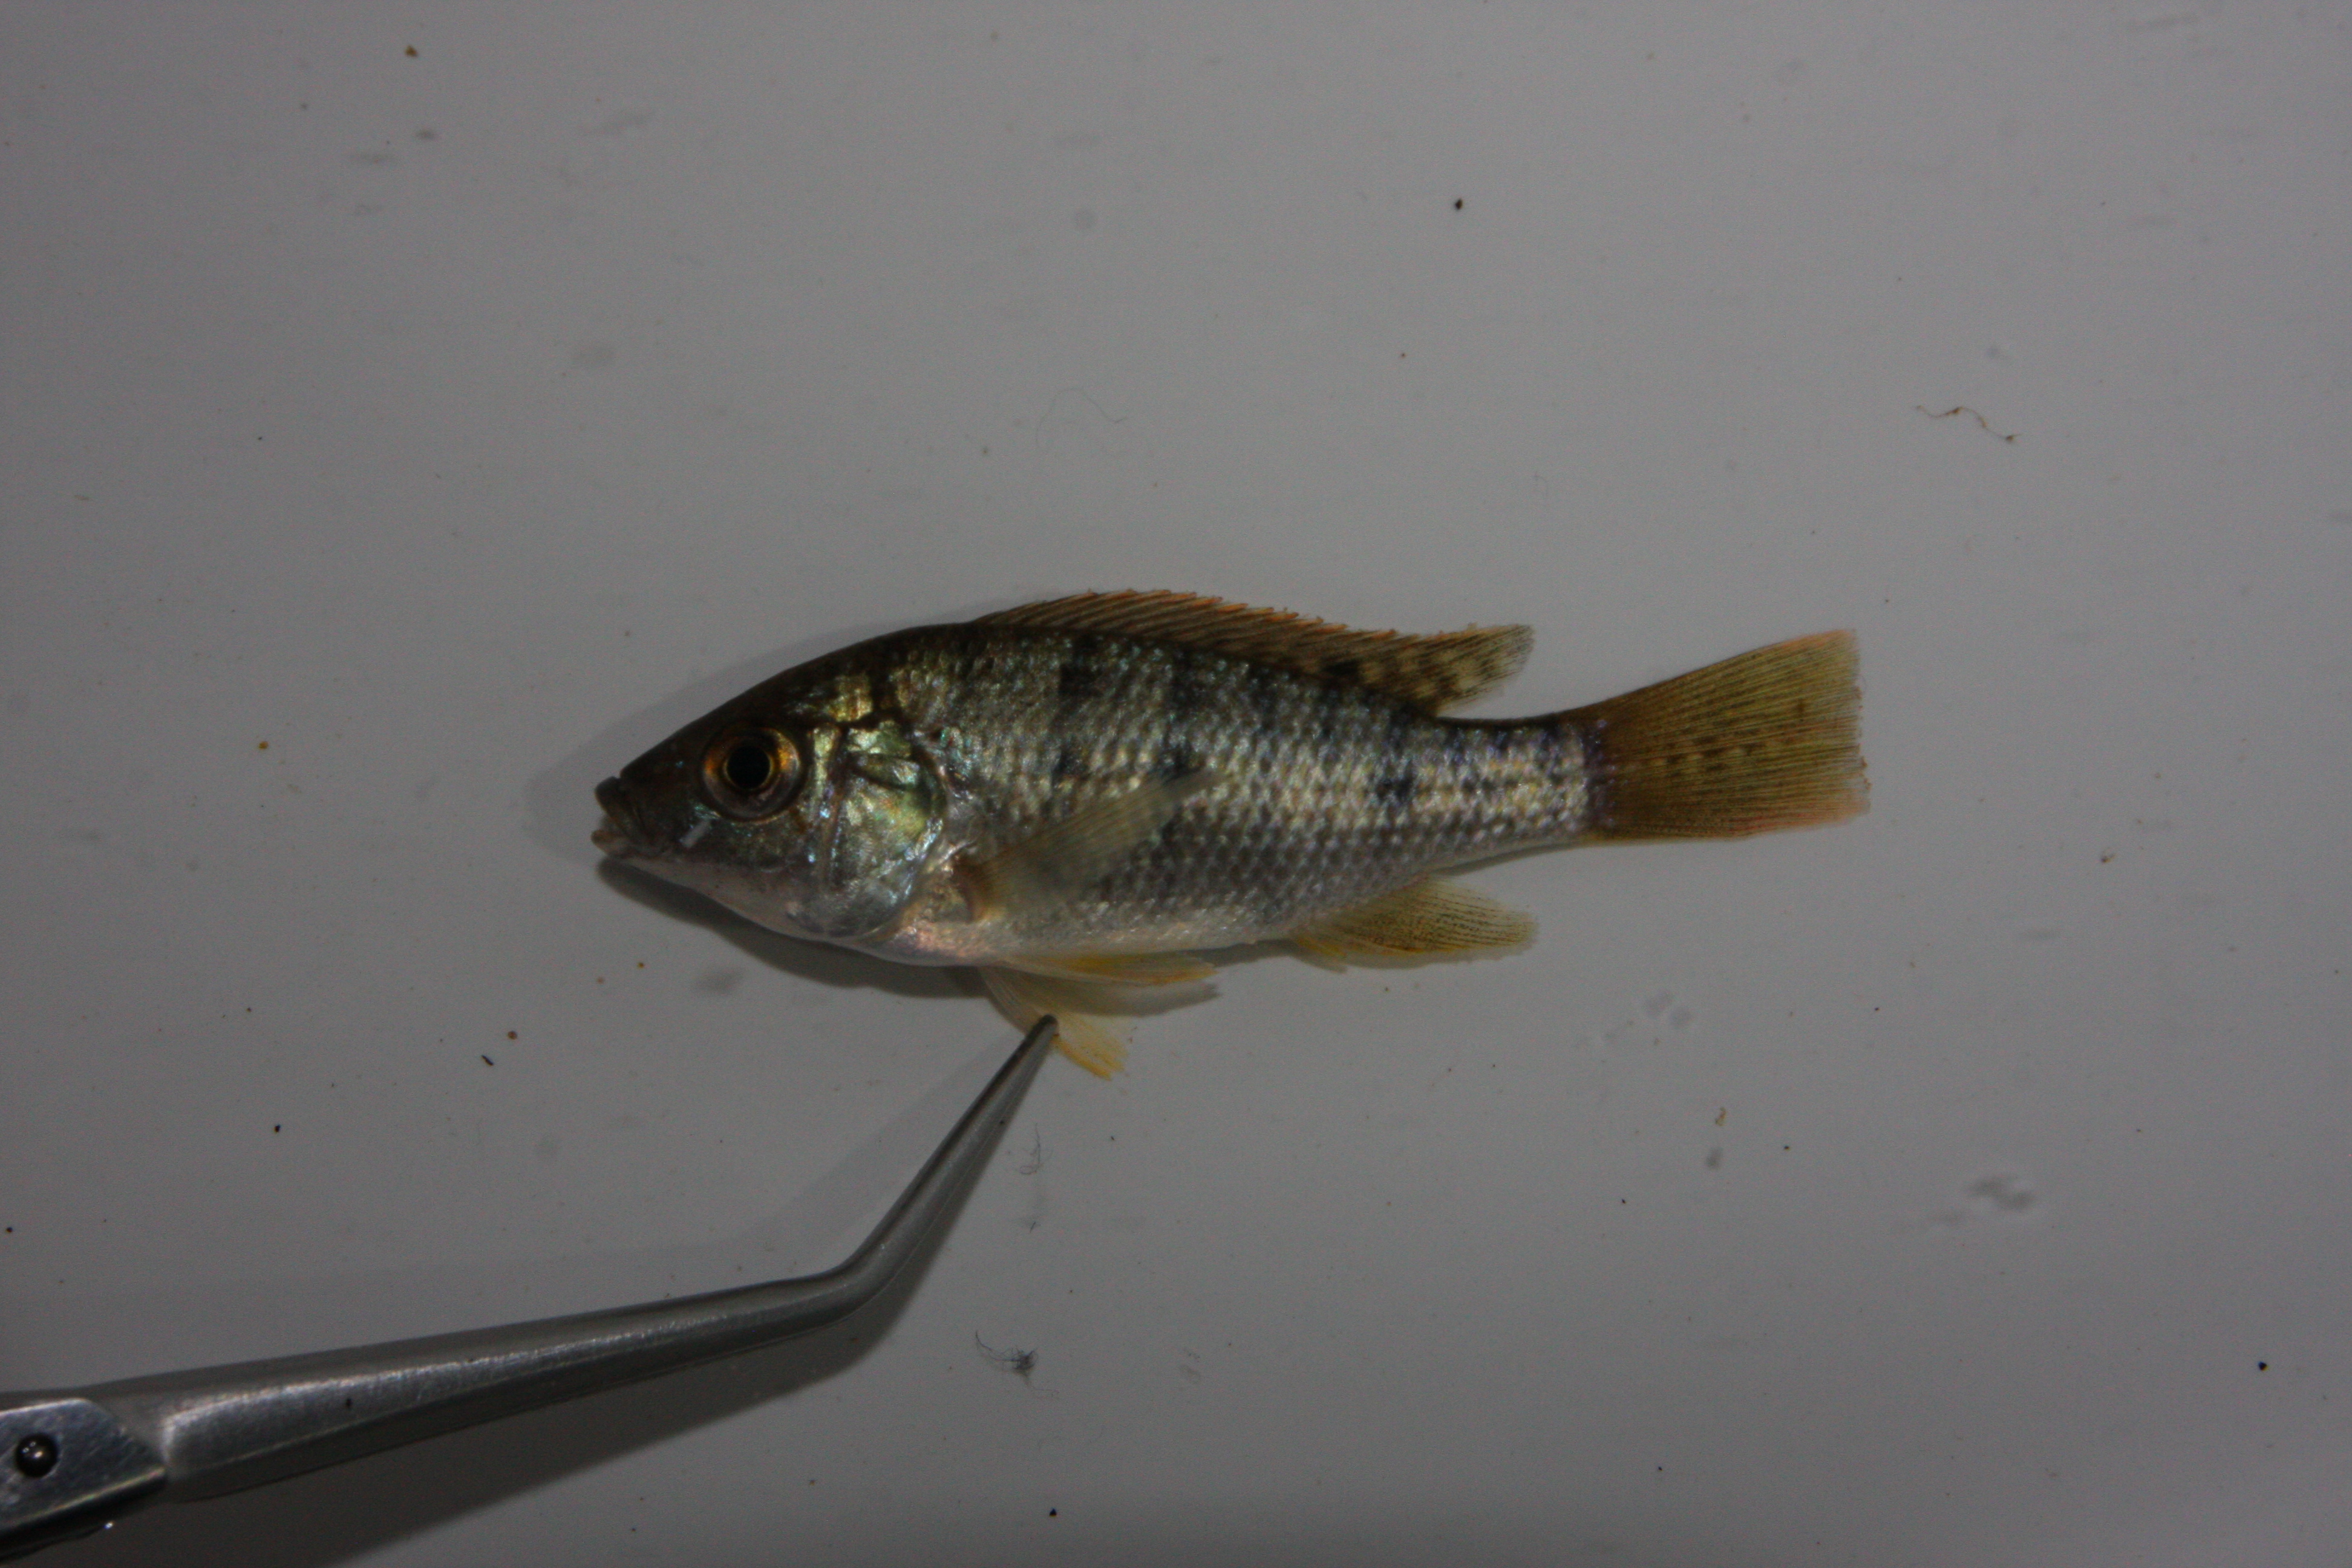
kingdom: Animalia
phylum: Chordata
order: Perciformes
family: Cichlidae
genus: Oreochromis
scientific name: Oreochromis mossambicus
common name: Mozambique tilapia
